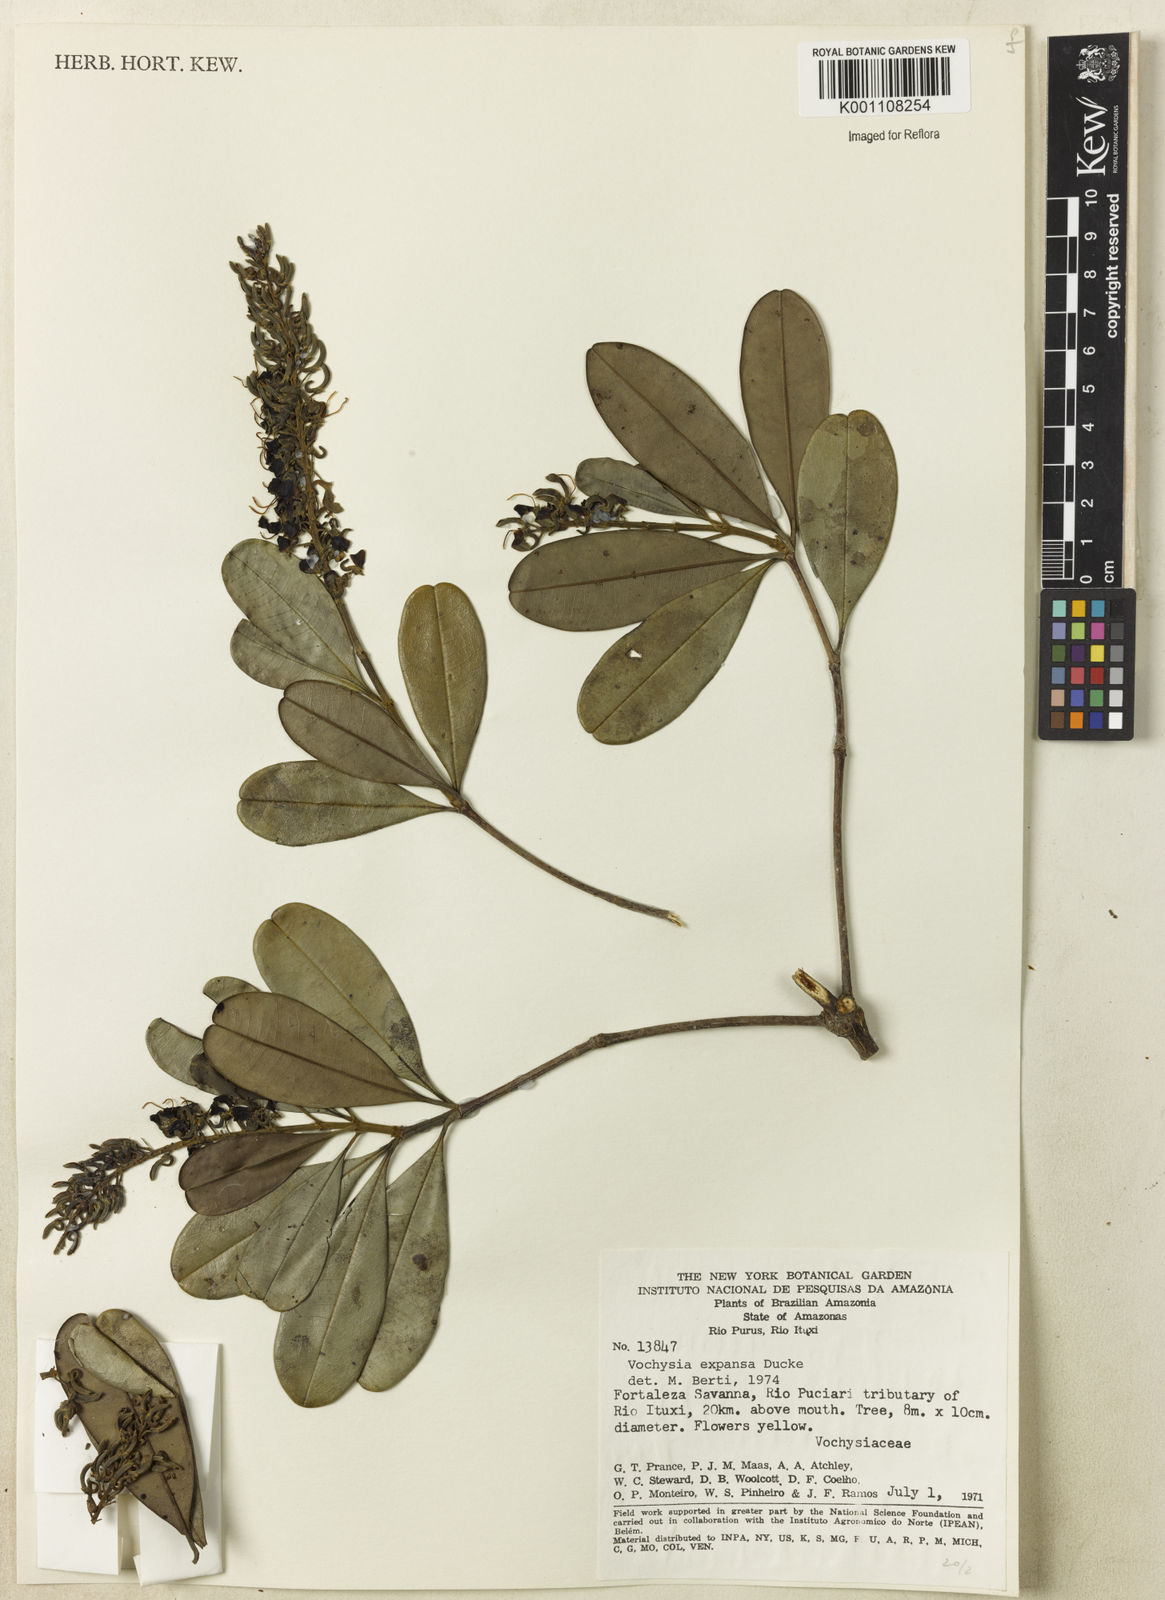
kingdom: Plantae
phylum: Tracheophyta
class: Magnoliopsida
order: Myrtales
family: Vochysiaceae
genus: Vochysia
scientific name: Vochysia expansa
